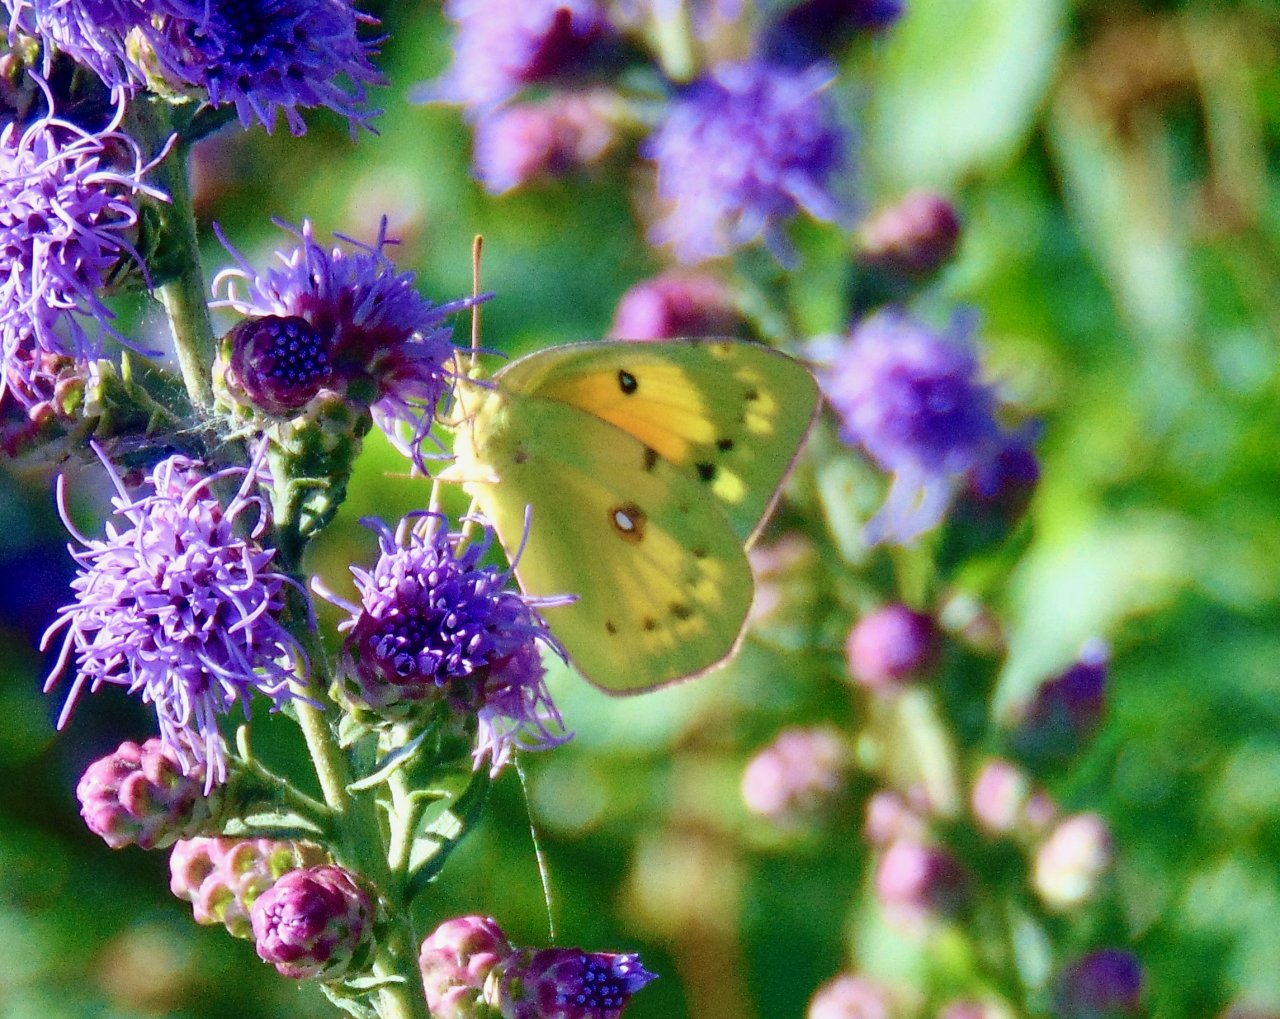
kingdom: Animalia
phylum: Arthropoda
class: Insecta
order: Lepidoptera
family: Pieridae
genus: Colias
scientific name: Colias eurytheme
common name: Orange Sulphur
